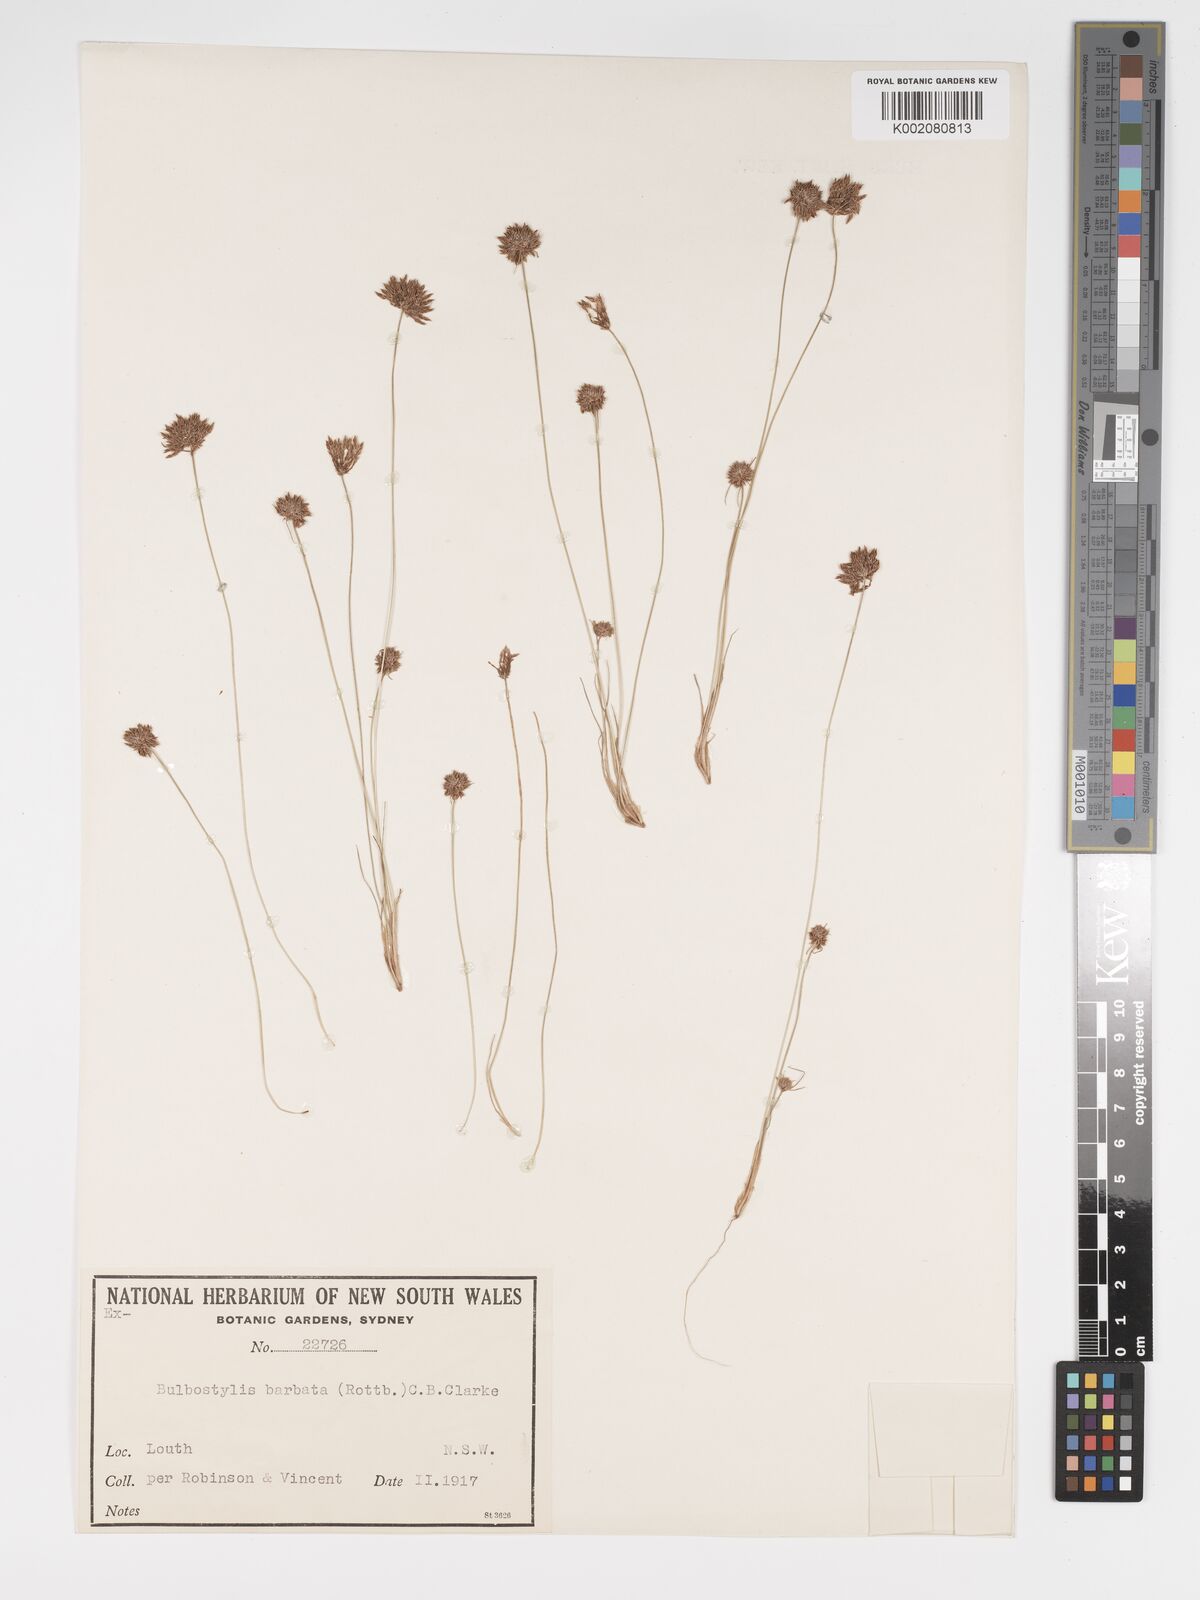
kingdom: Plantae
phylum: Tracheophyta
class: Liliopsida
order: Poales
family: Cyperaceae
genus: Bulbostylis
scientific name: Bulbostylis barbata
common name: Watergrass
